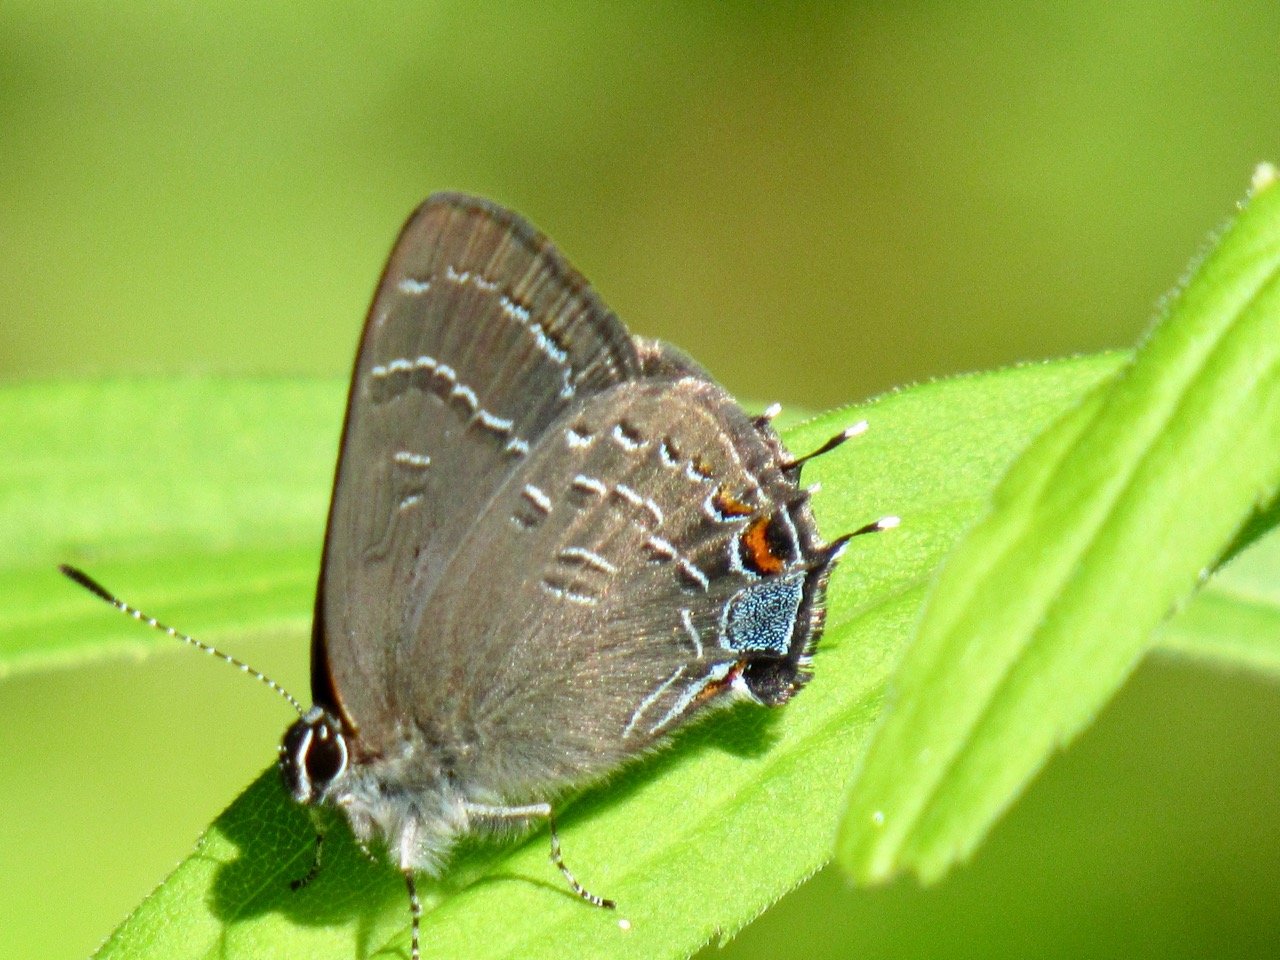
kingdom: Animalia
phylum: Arthropoda
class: Insecta
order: Lepidoptera
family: Lycaenidae
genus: Satyrium
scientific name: Satyrium calanus
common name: Banded Hairstreak
